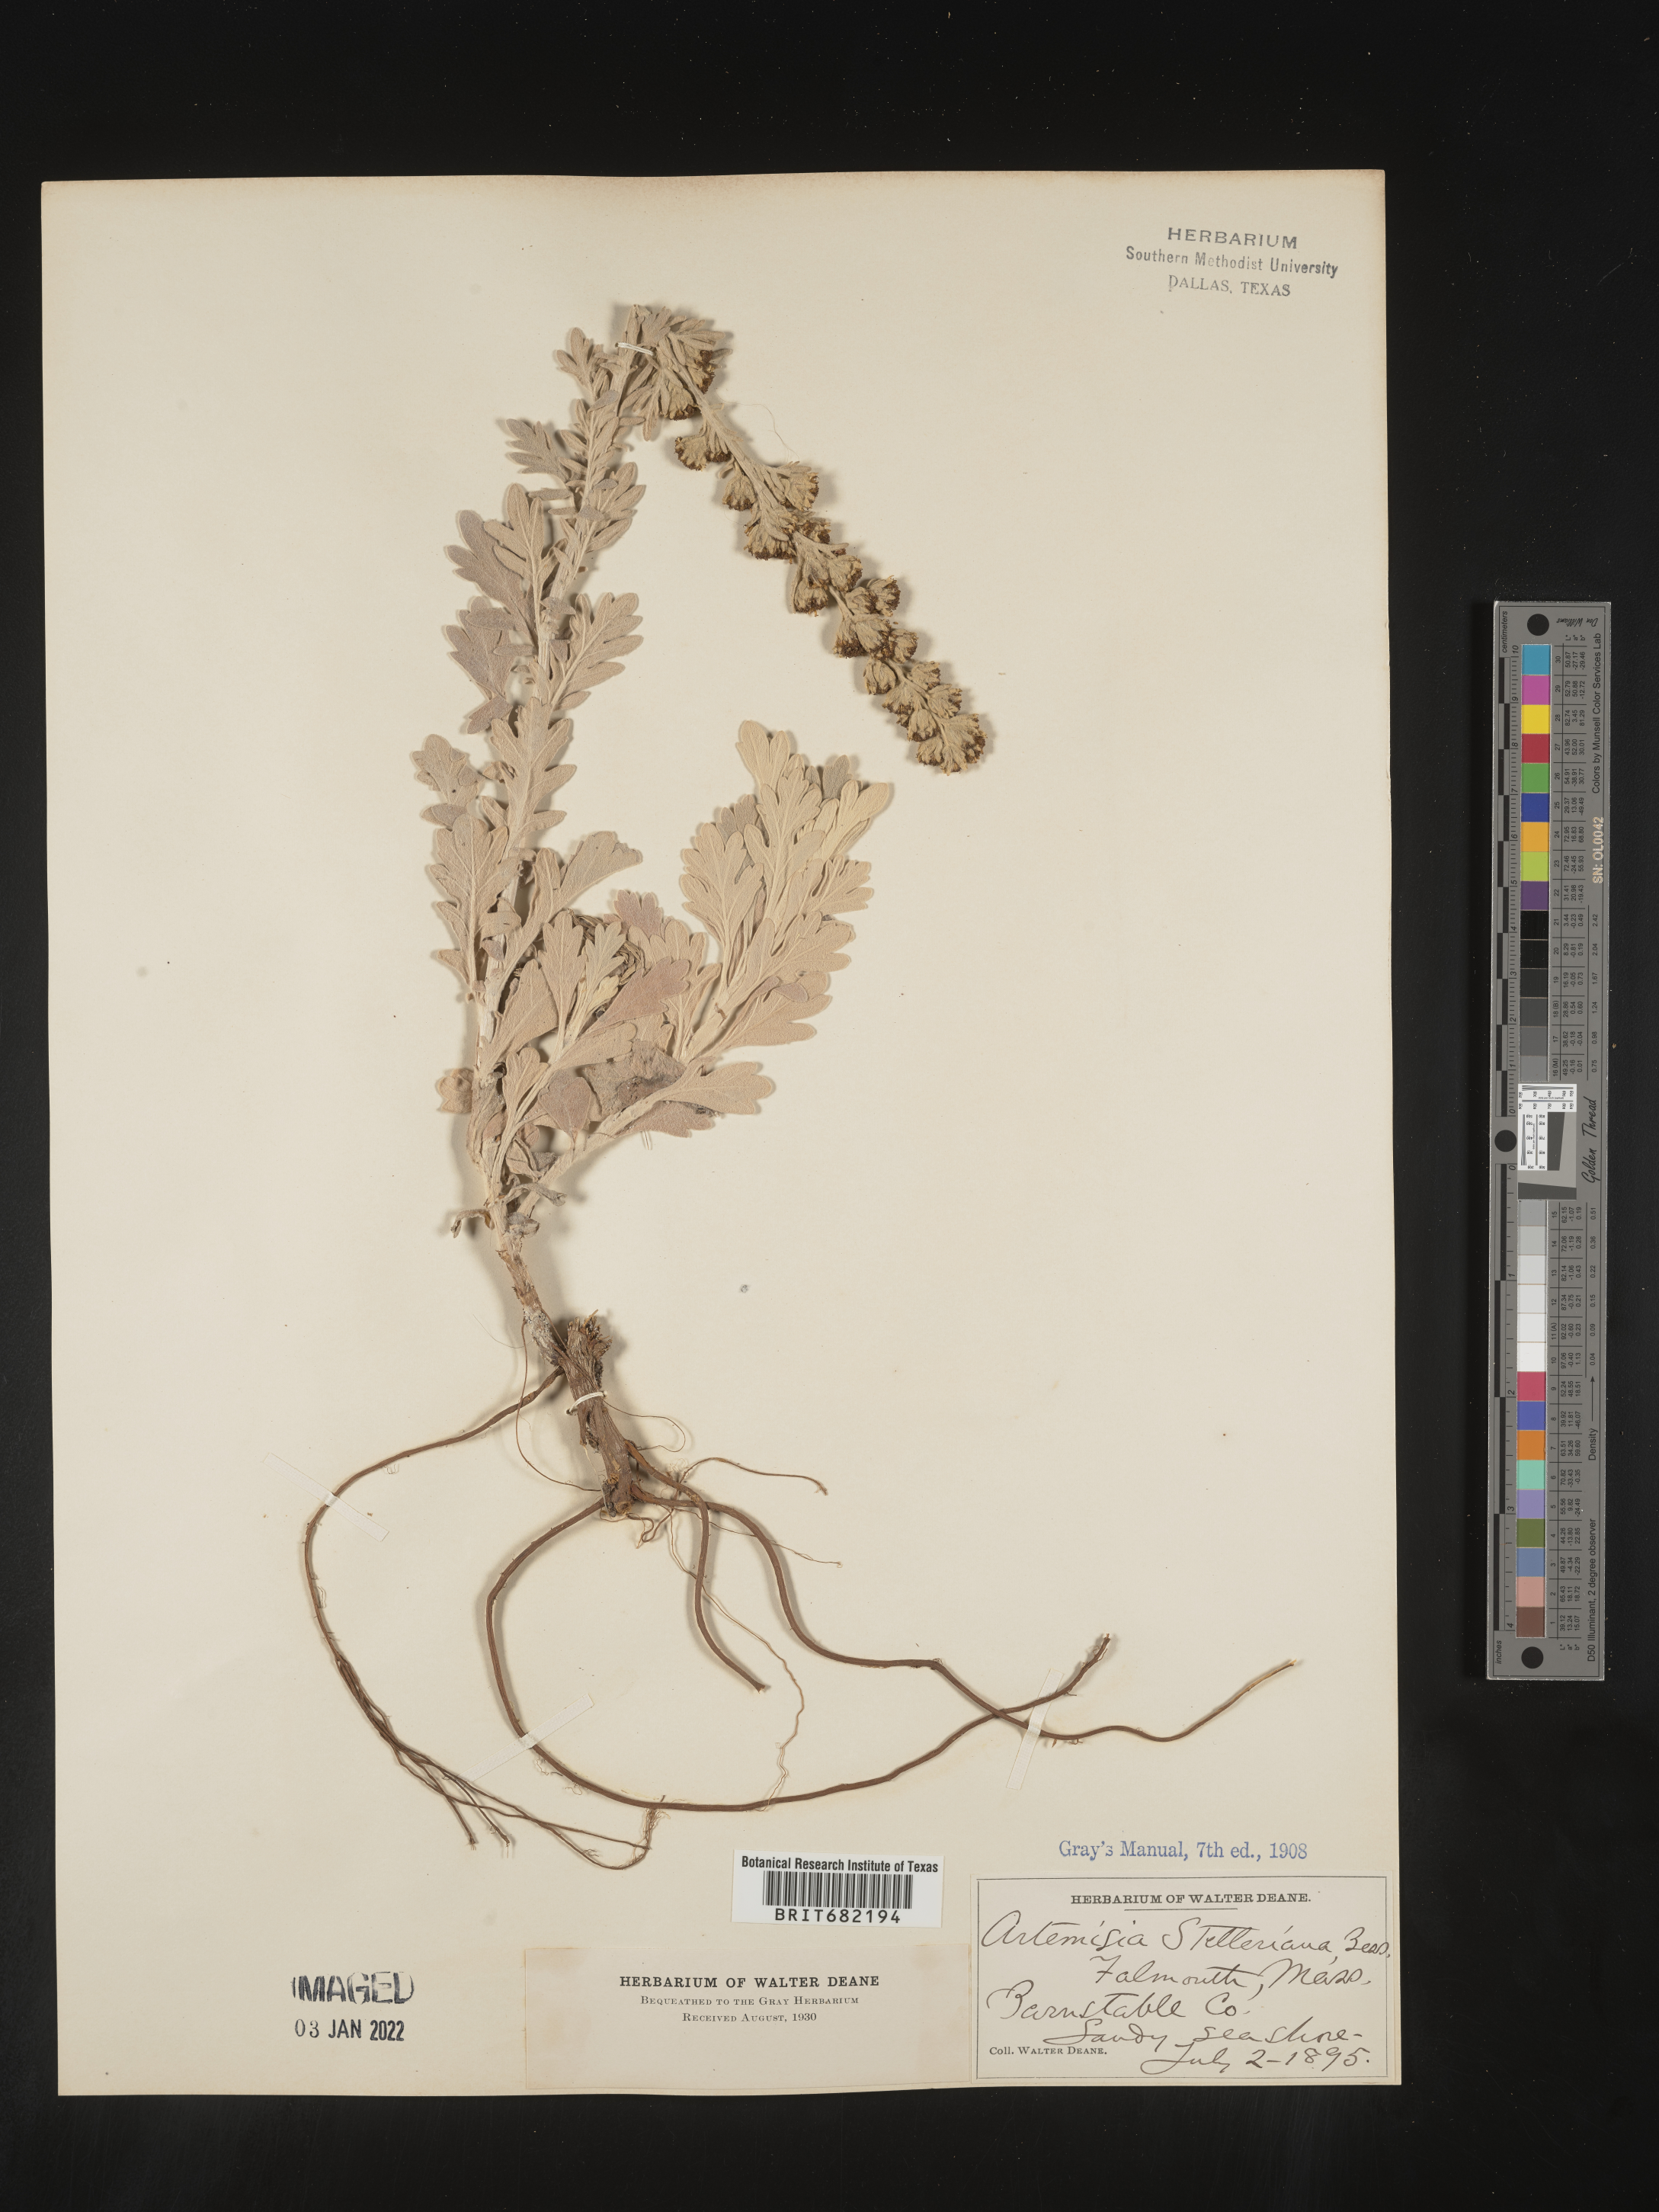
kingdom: Plantae
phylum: Tracheophyta
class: Magnoliopsida
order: Asterales
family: Asteraceae
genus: Artemisia
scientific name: Artemisia stelleriana
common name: Beach wormwood
